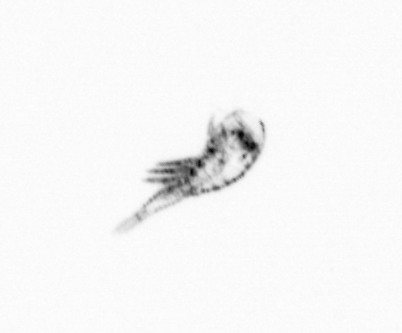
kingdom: Animalia
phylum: Arthropoda
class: Copepoda
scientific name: Copepoda
